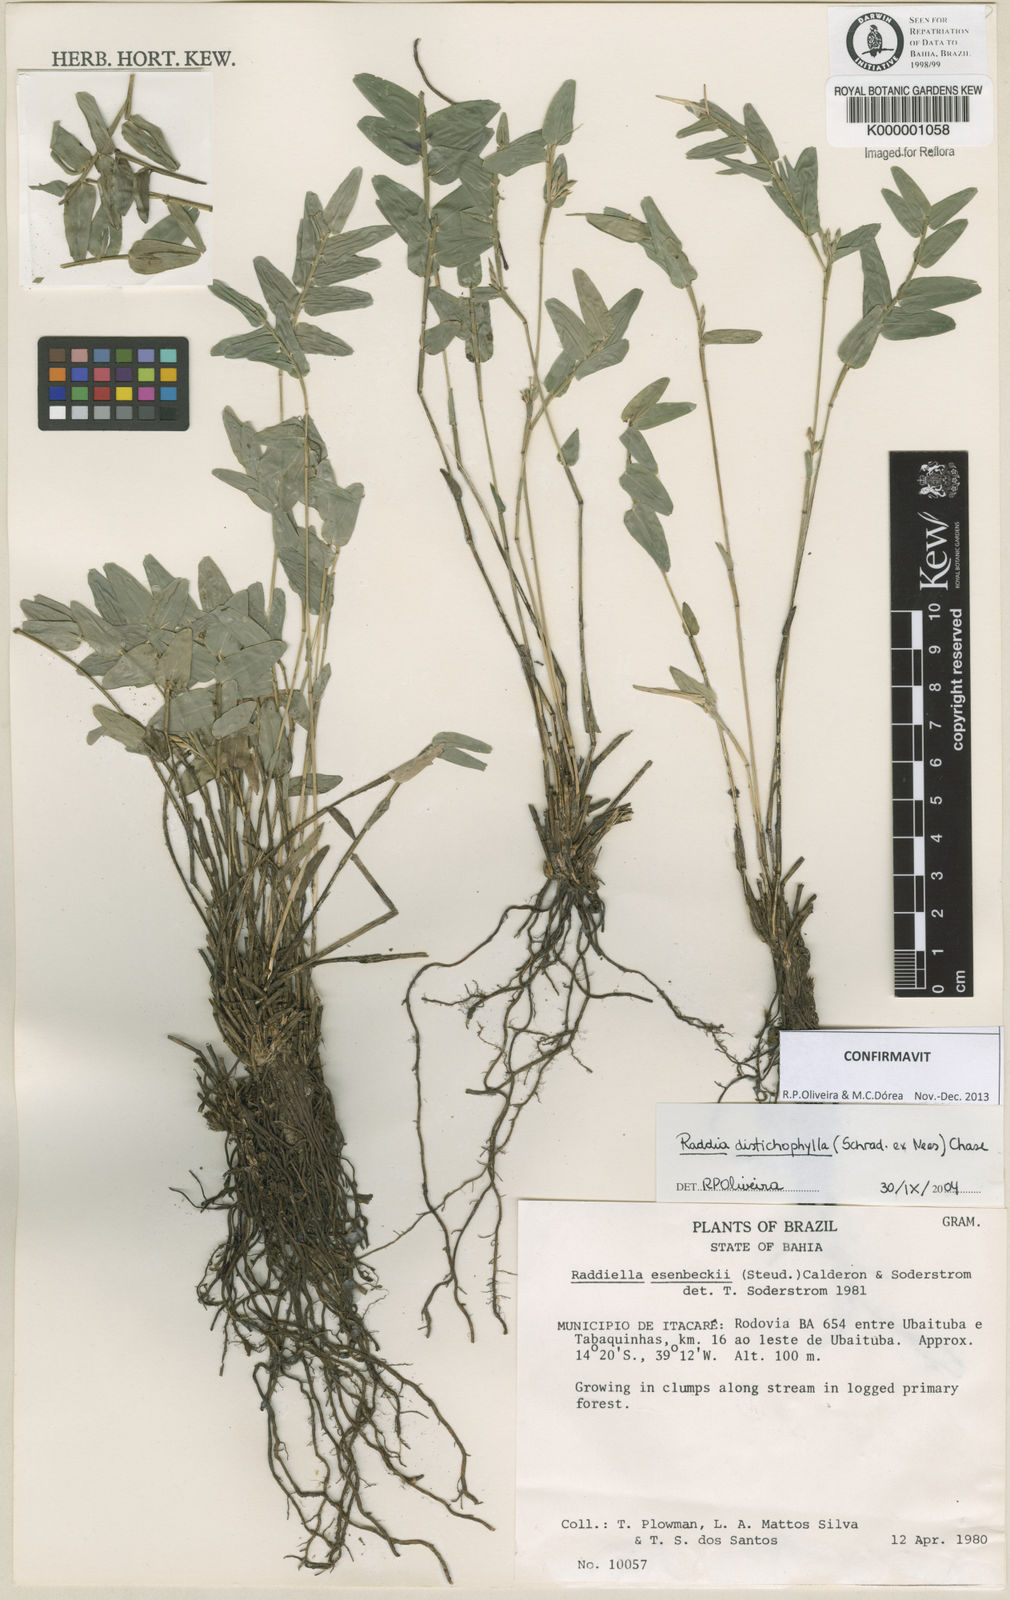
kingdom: Plantae
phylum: Tracheophyta
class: Liliopsida
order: Poales
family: Poaceae
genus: Raddiella
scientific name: Raddiella esenbeckii
